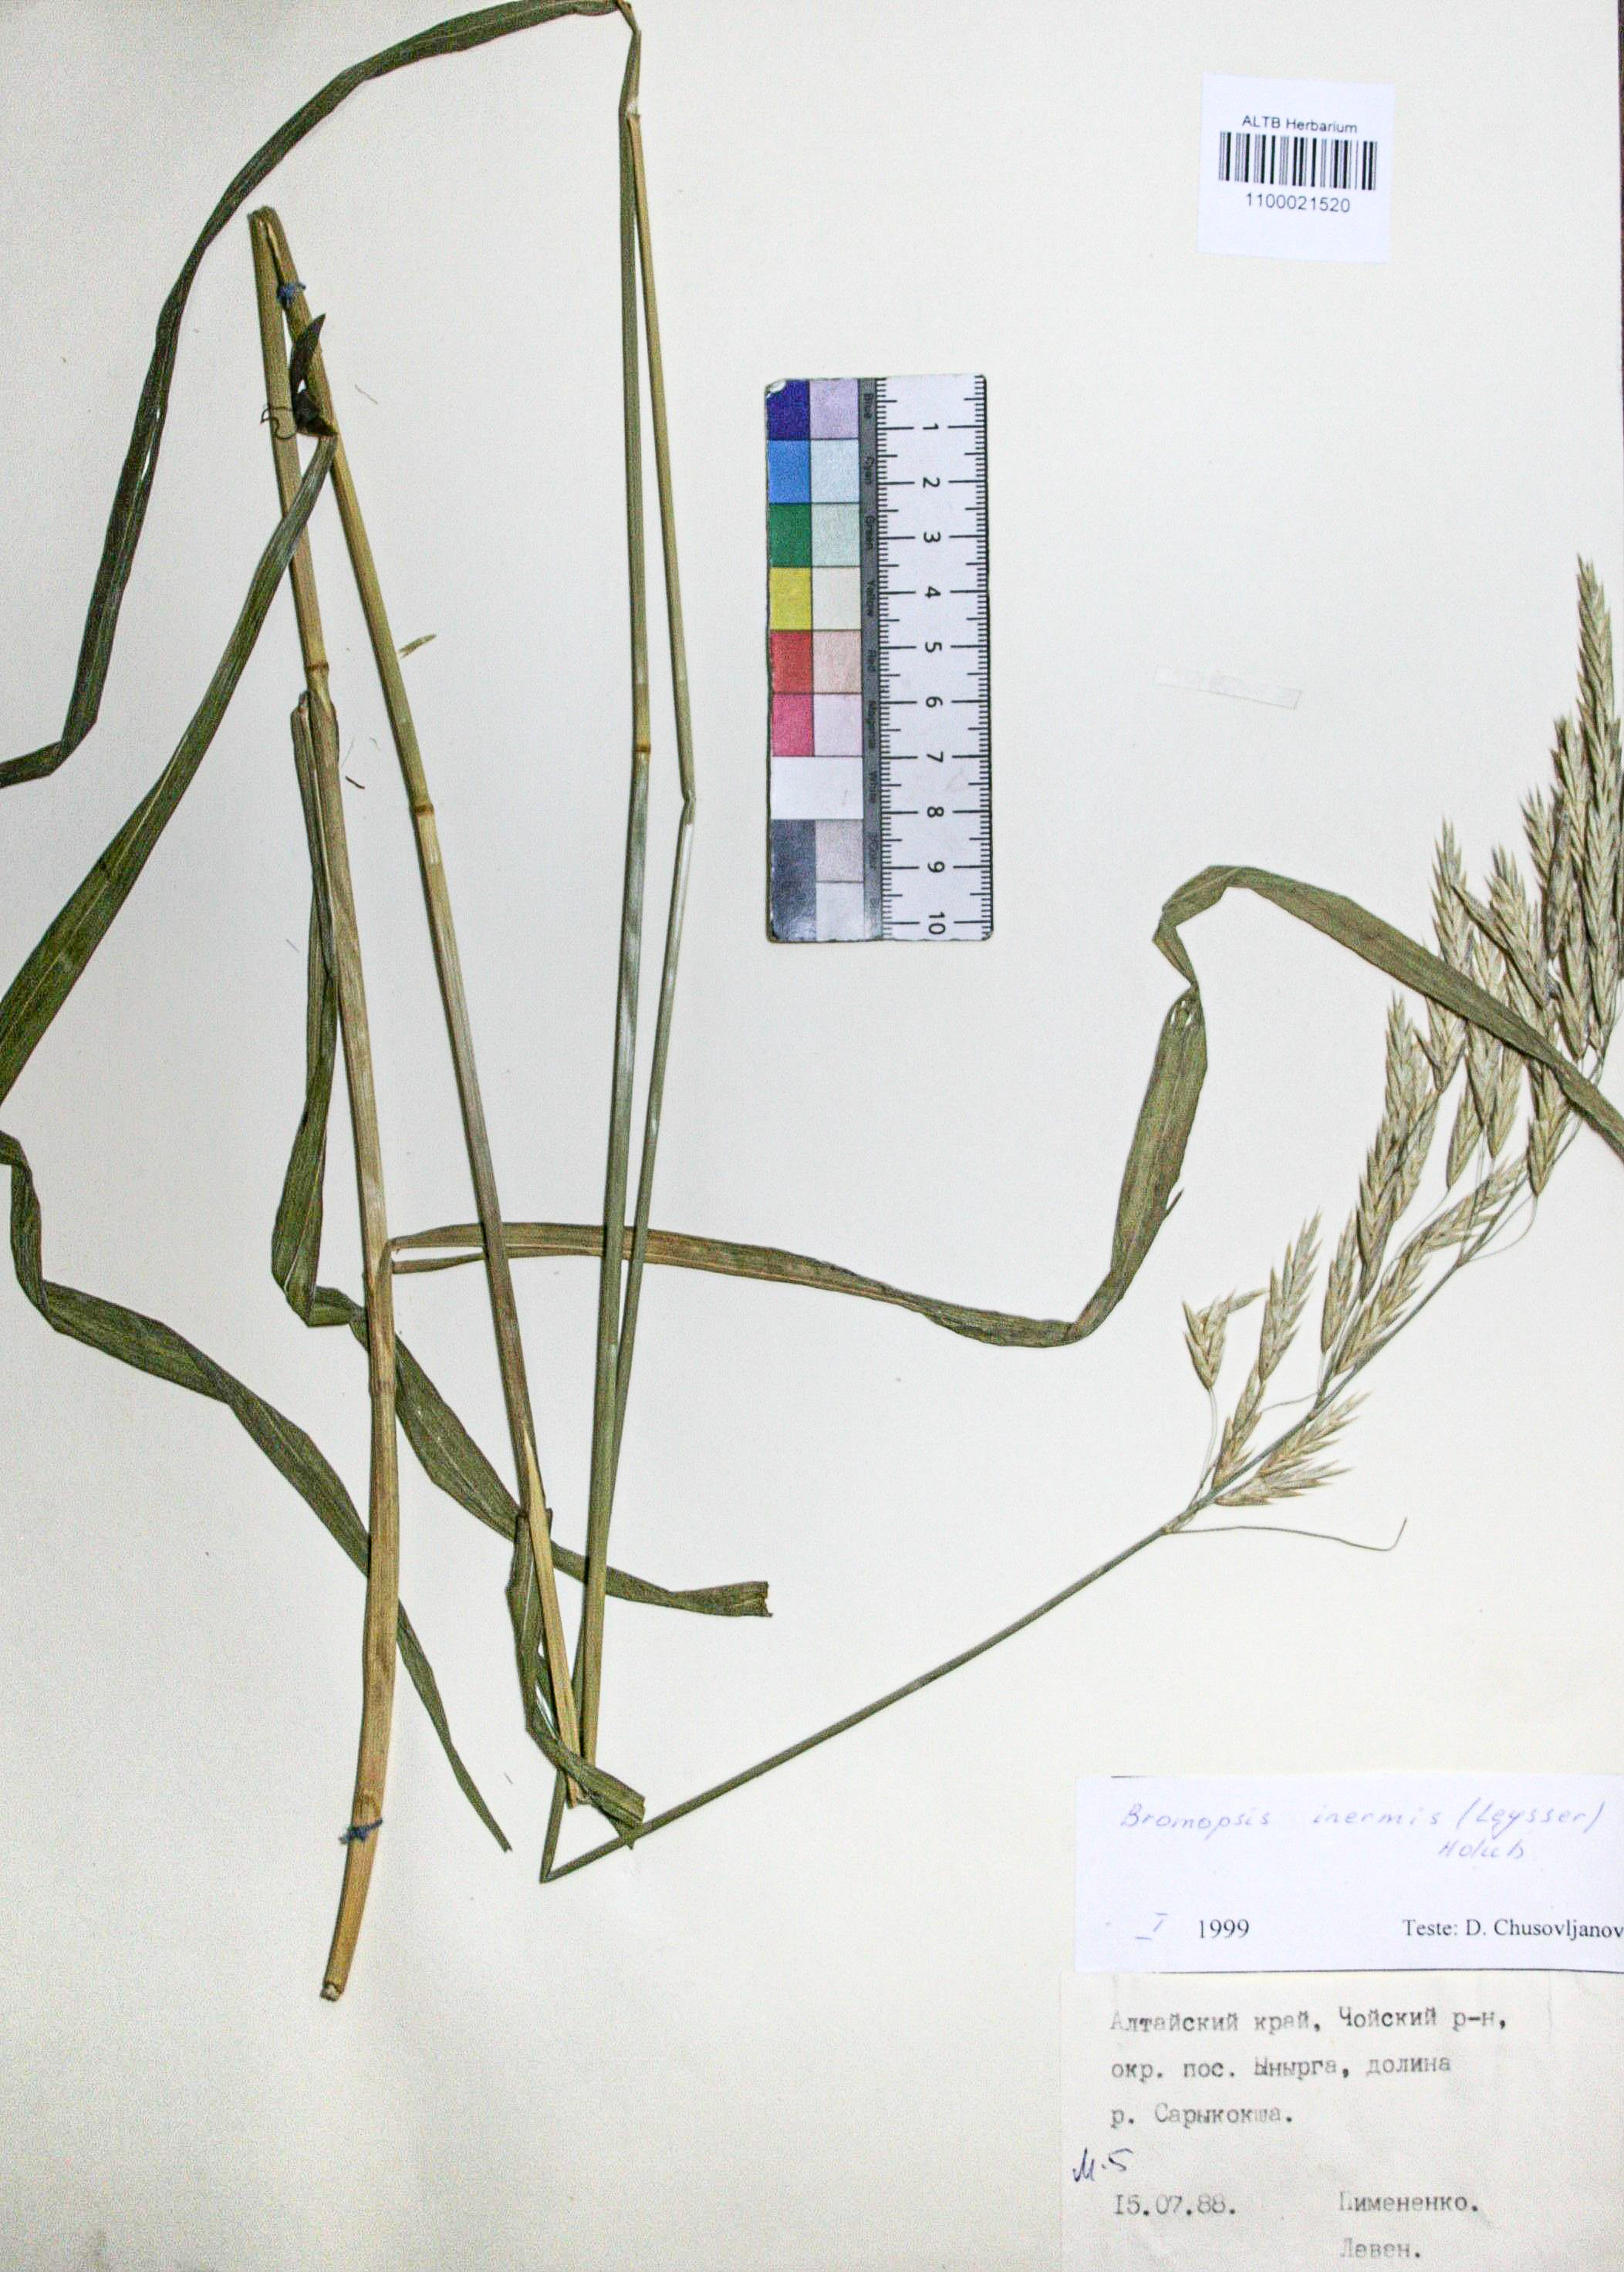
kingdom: Plantae
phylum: Tracheophyta
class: Liliopsida
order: Poales
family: Poaceae
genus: Bromus
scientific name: Bromus inermis
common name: Smooth brome
